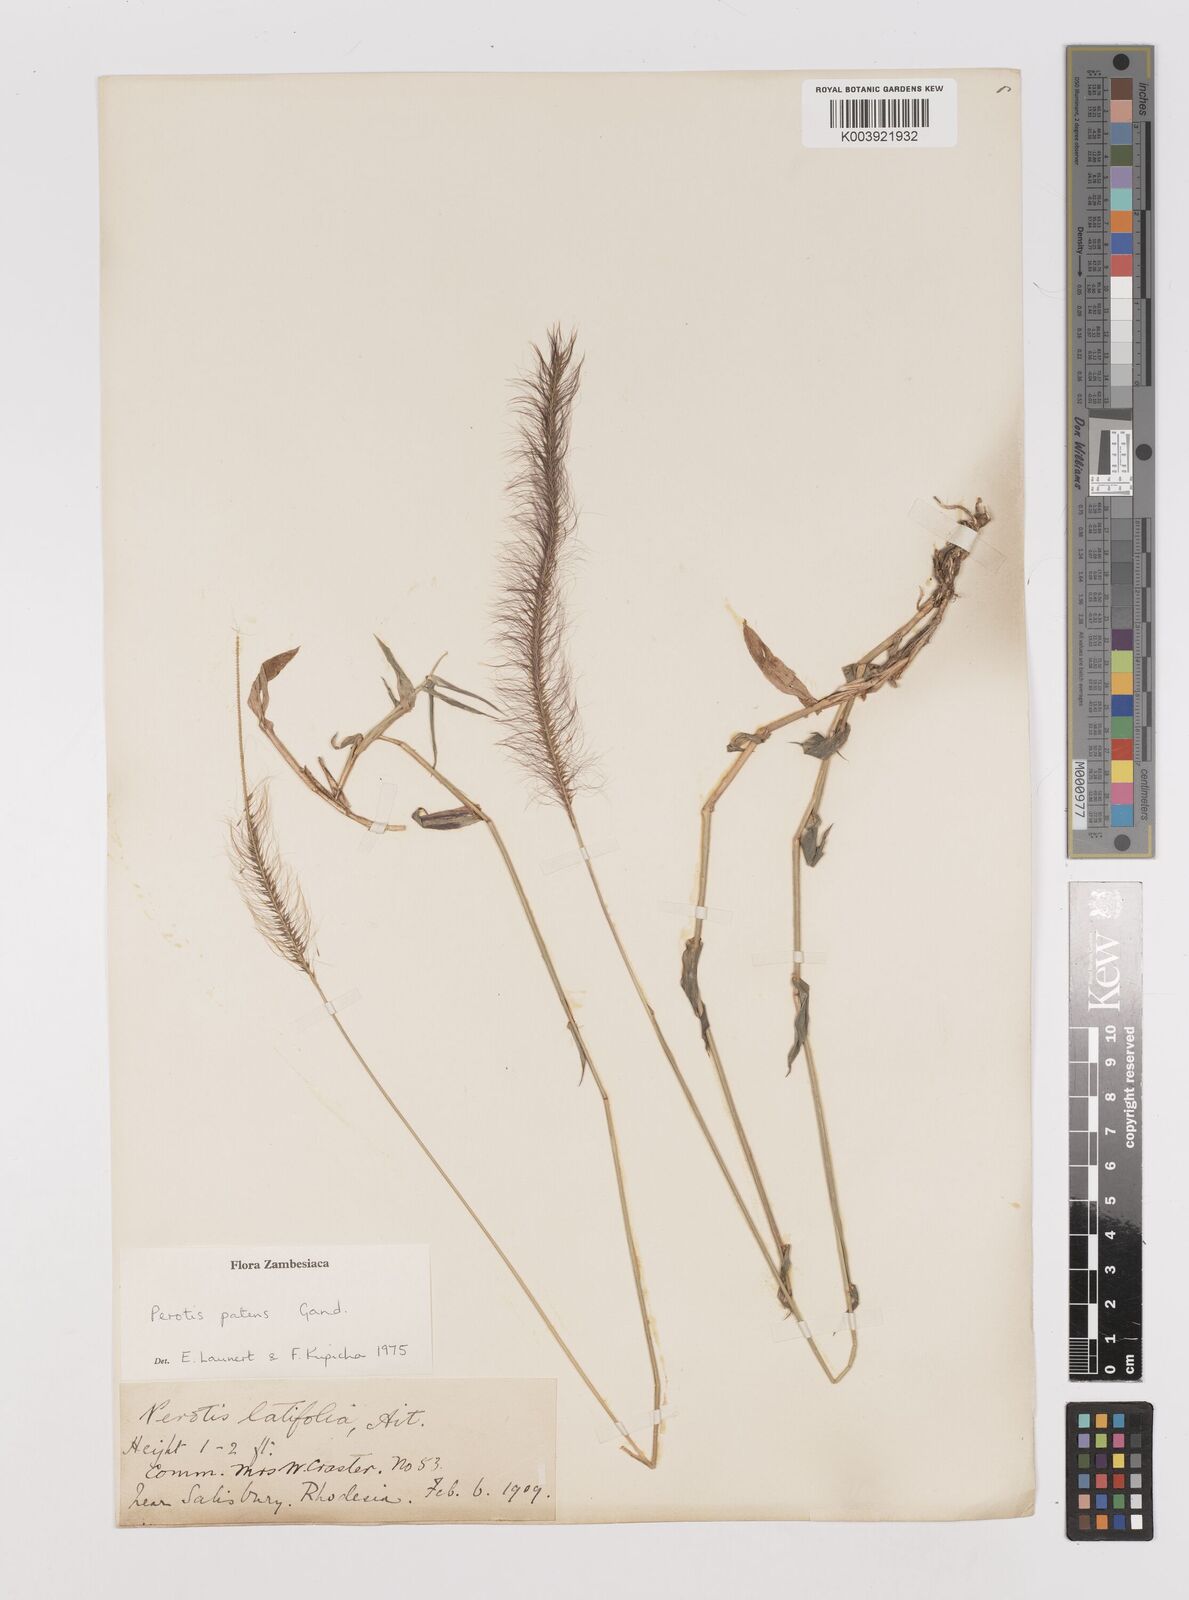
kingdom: Plantae
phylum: Tracheophyta
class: Liliopsida
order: Poales
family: Poaceae
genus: Perotis
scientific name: Perotis patens
